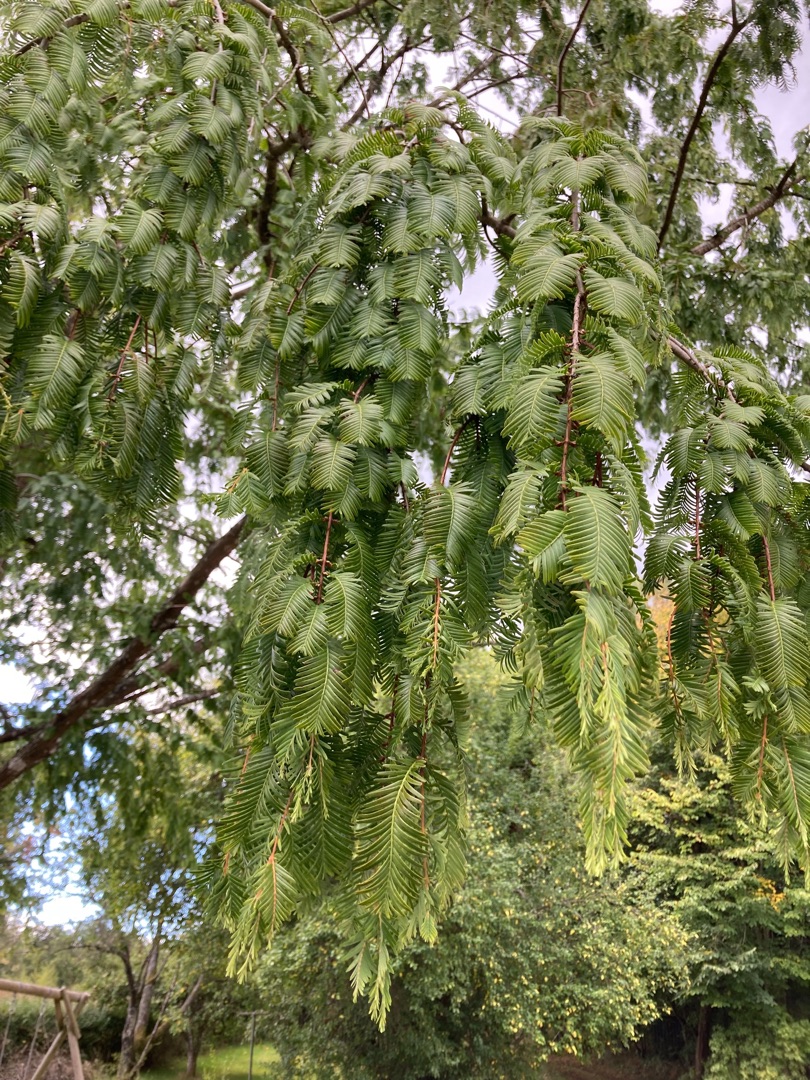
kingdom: Plantae
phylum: Tracheophyta
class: Pinopsida
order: Pinales
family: Cupressaceae
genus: Metasequoia
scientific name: Metasequoia glyptostroboides
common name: Vandgran
